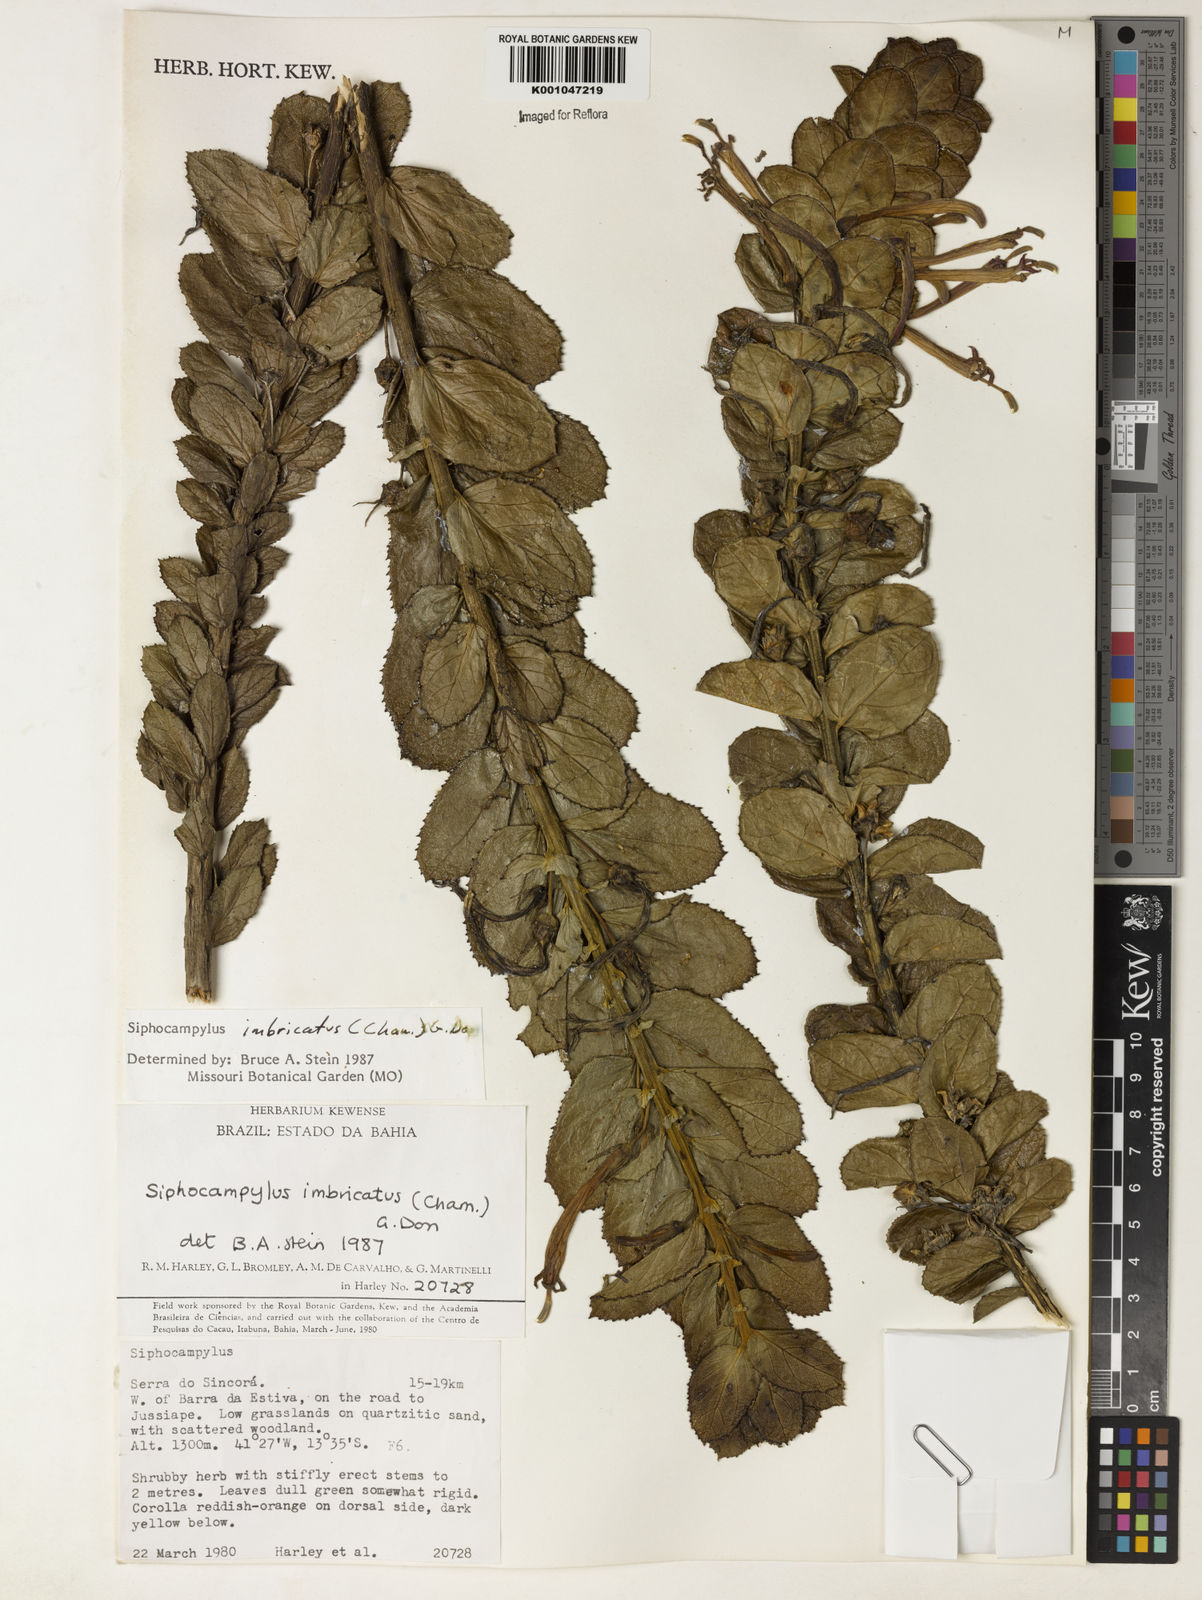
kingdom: Plantae
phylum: Tracheophyta
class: Magnoliopsida
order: Asterales
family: Campanulaceae
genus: Siphocampylus
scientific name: Siphocampylus imbricatus
